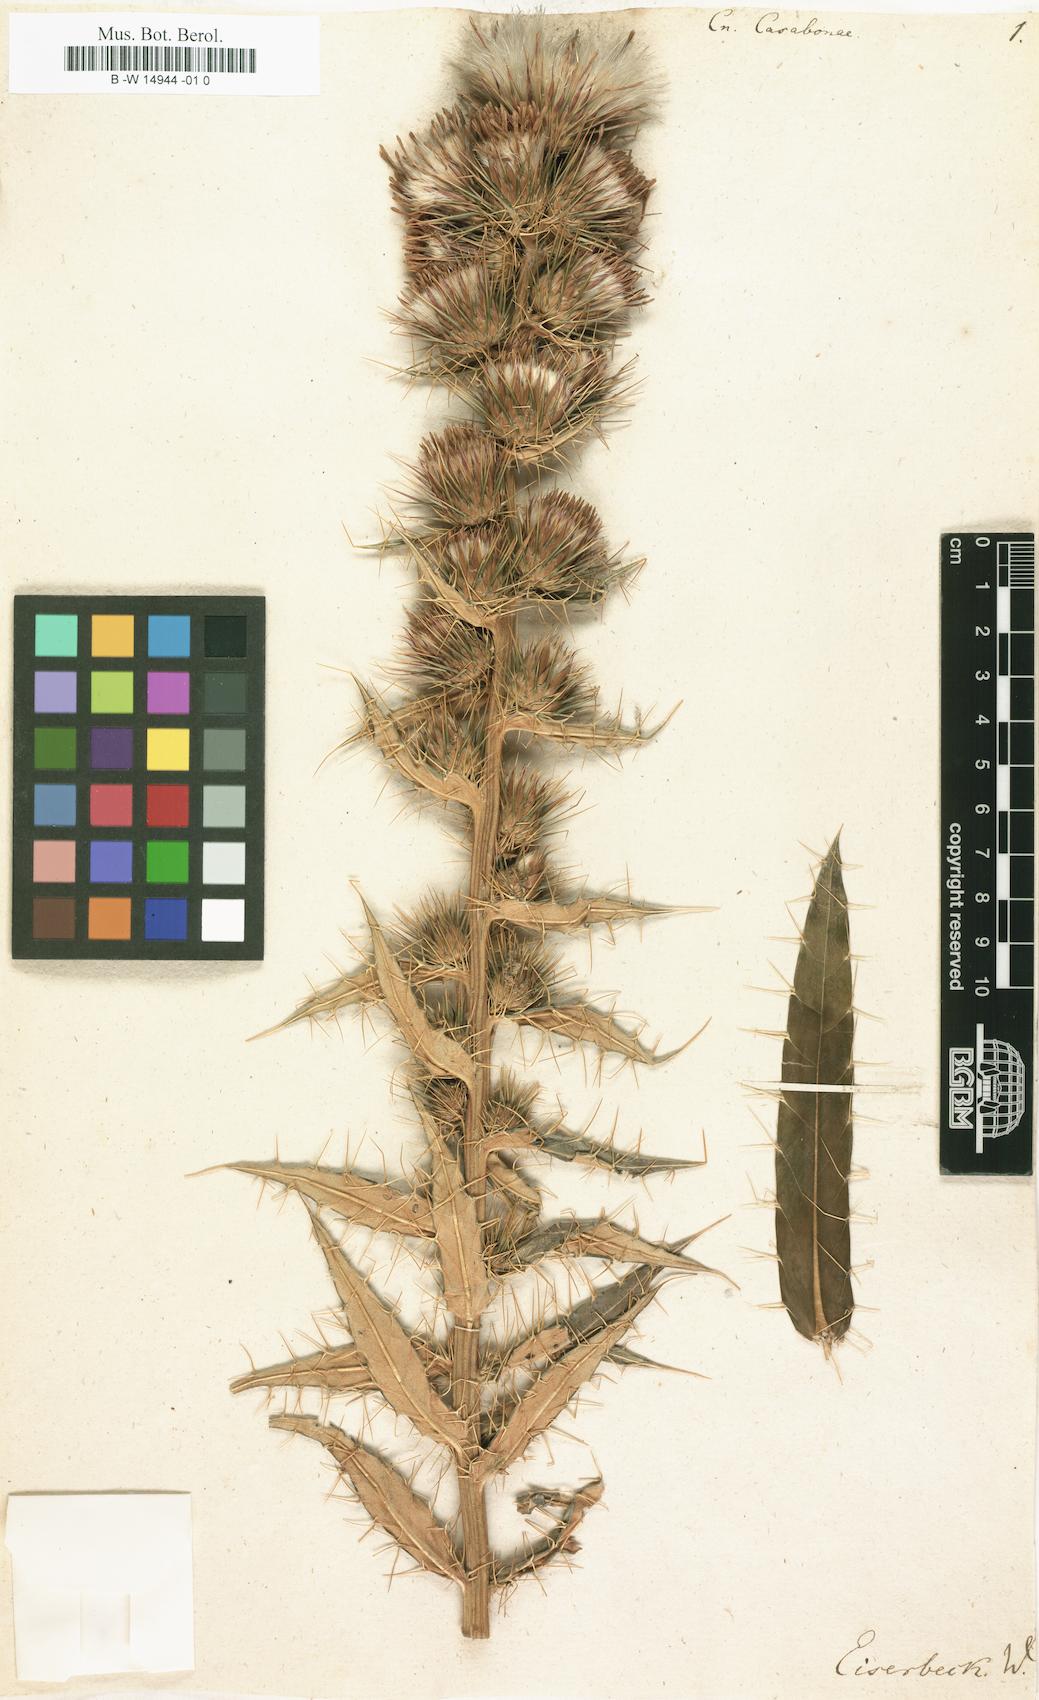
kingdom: Plantae
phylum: Tracheophyta
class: Magnoliopsida
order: Asterales
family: Asteraceae
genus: Ptilostemon
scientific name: Ptilostemon casabonae
